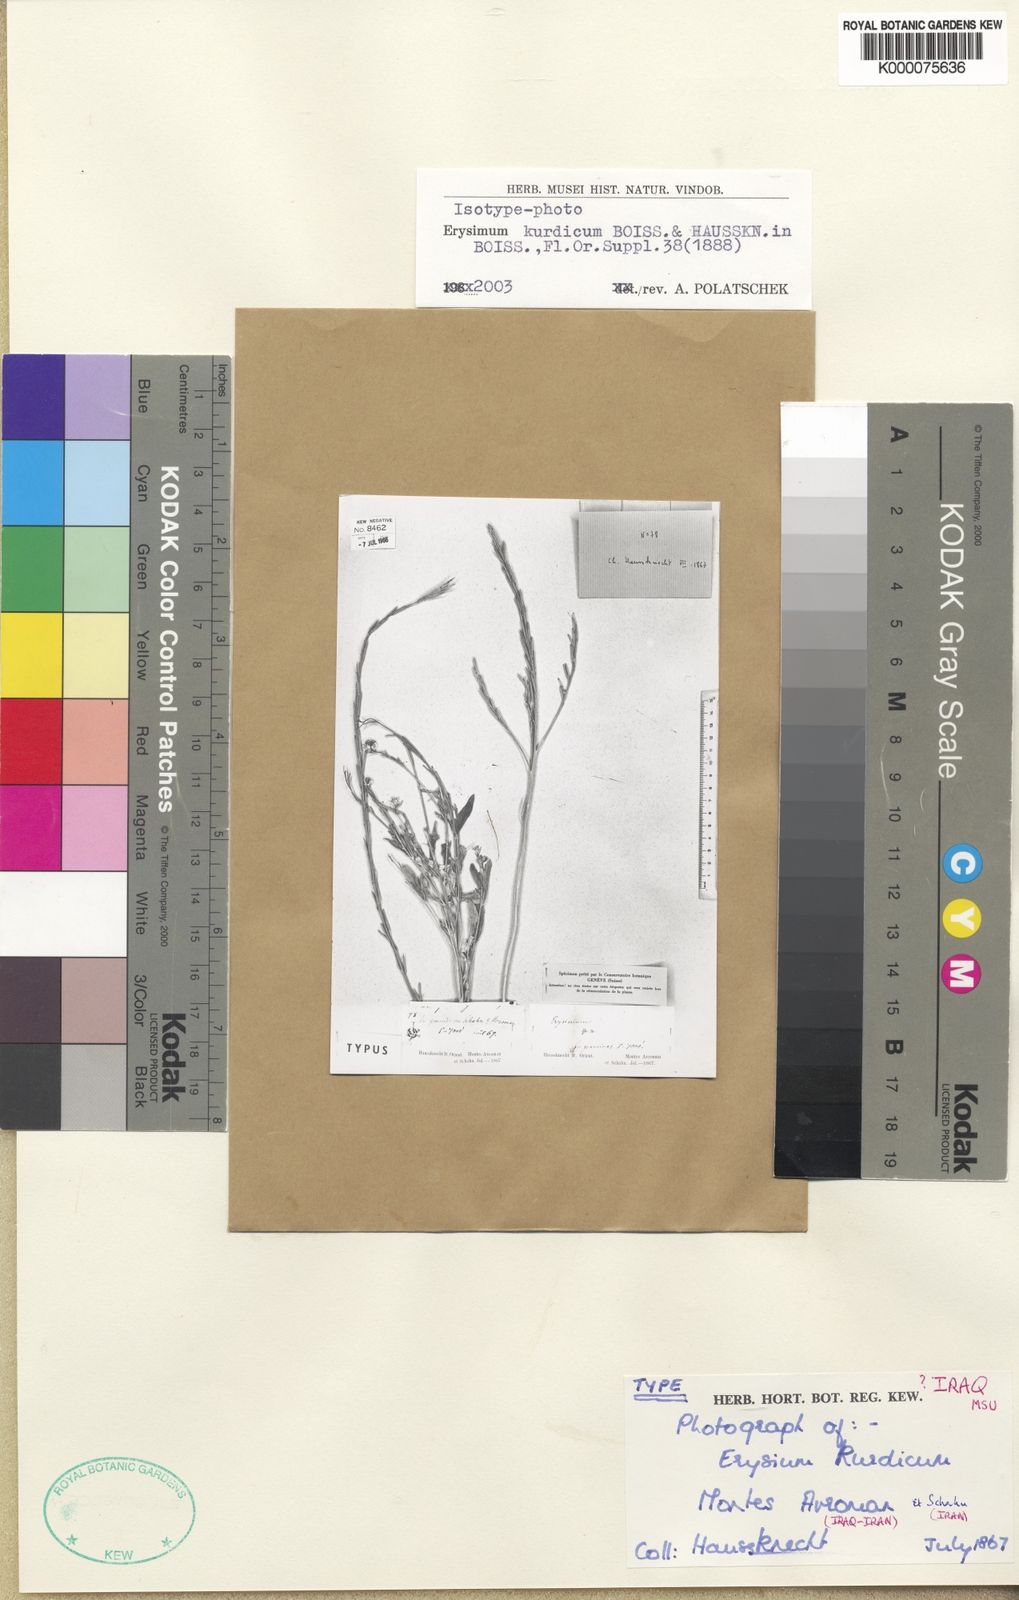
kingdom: Plantae
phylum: Tracheophyta
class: Magnoliopsida
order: Brassicales
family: Brassicaceae
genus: Erysimum
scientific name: Erysimum kurdicum
